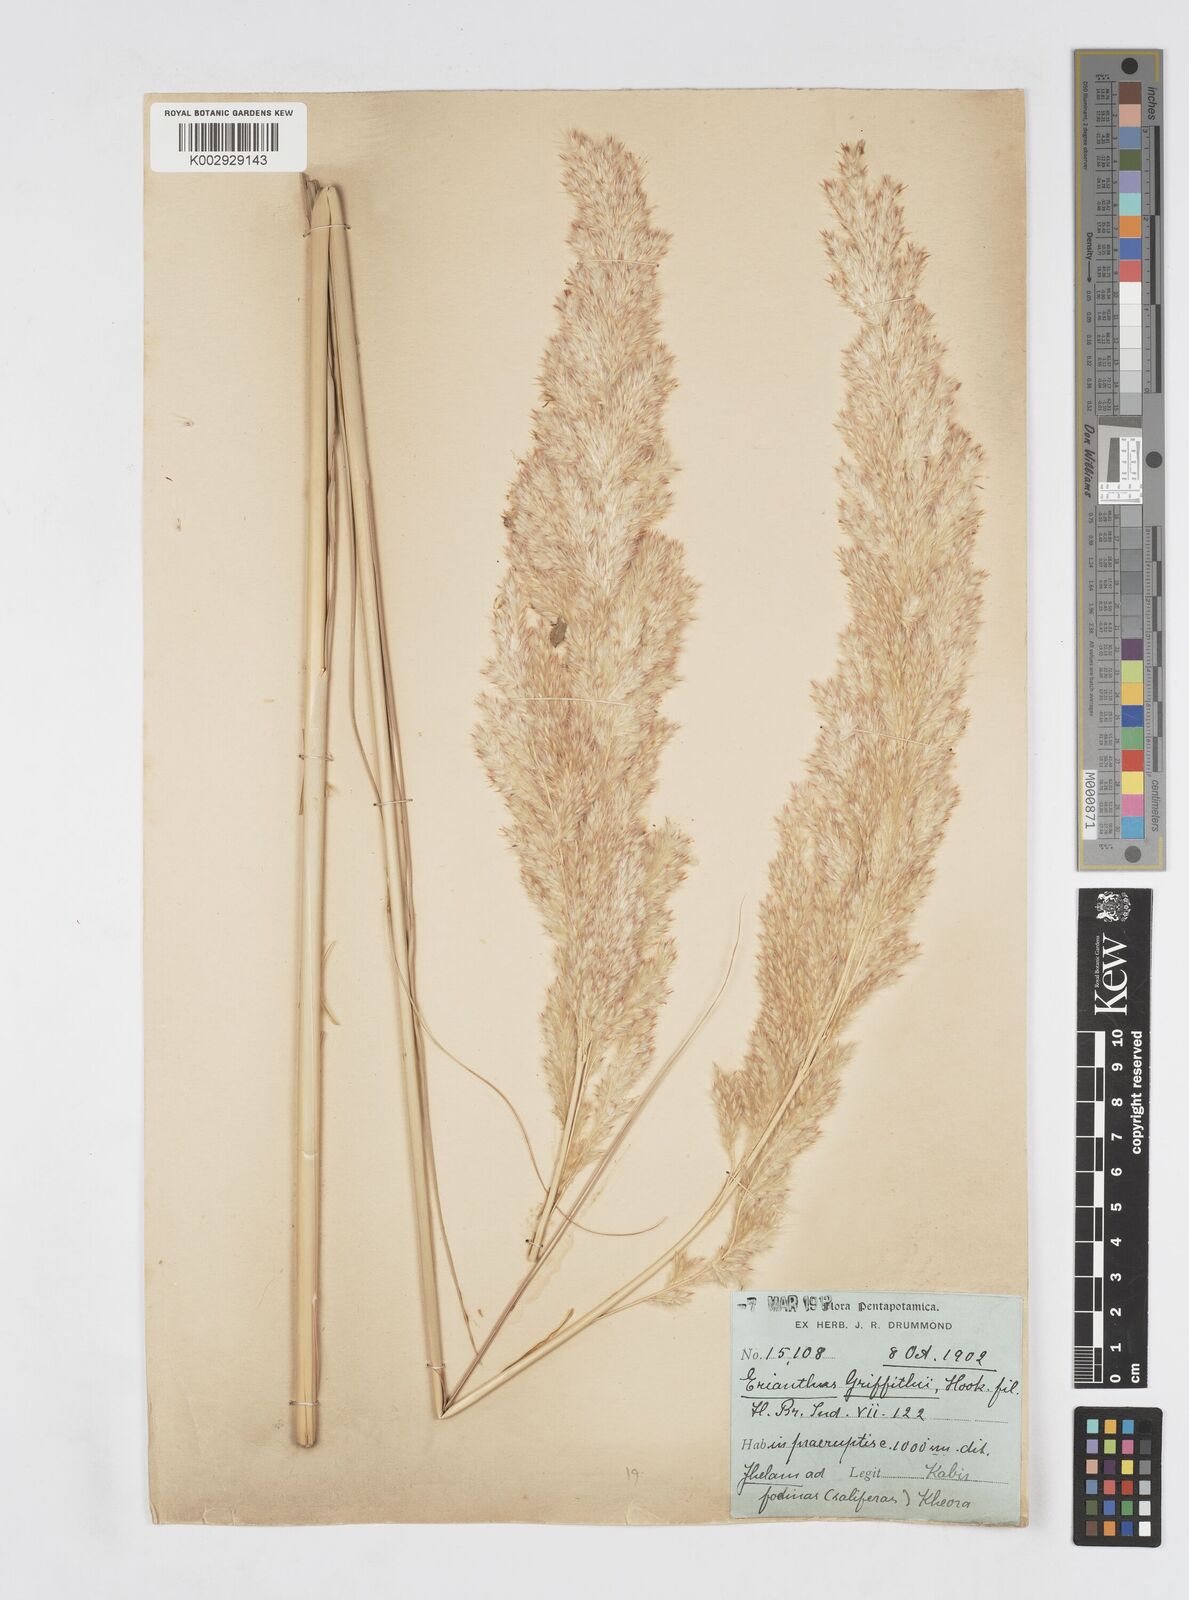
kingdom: Plantae
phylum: Tracheophyta
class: Liliopsida
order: Poales
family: Poaceae
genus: Saccharum
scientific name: Saccharum griffithii
